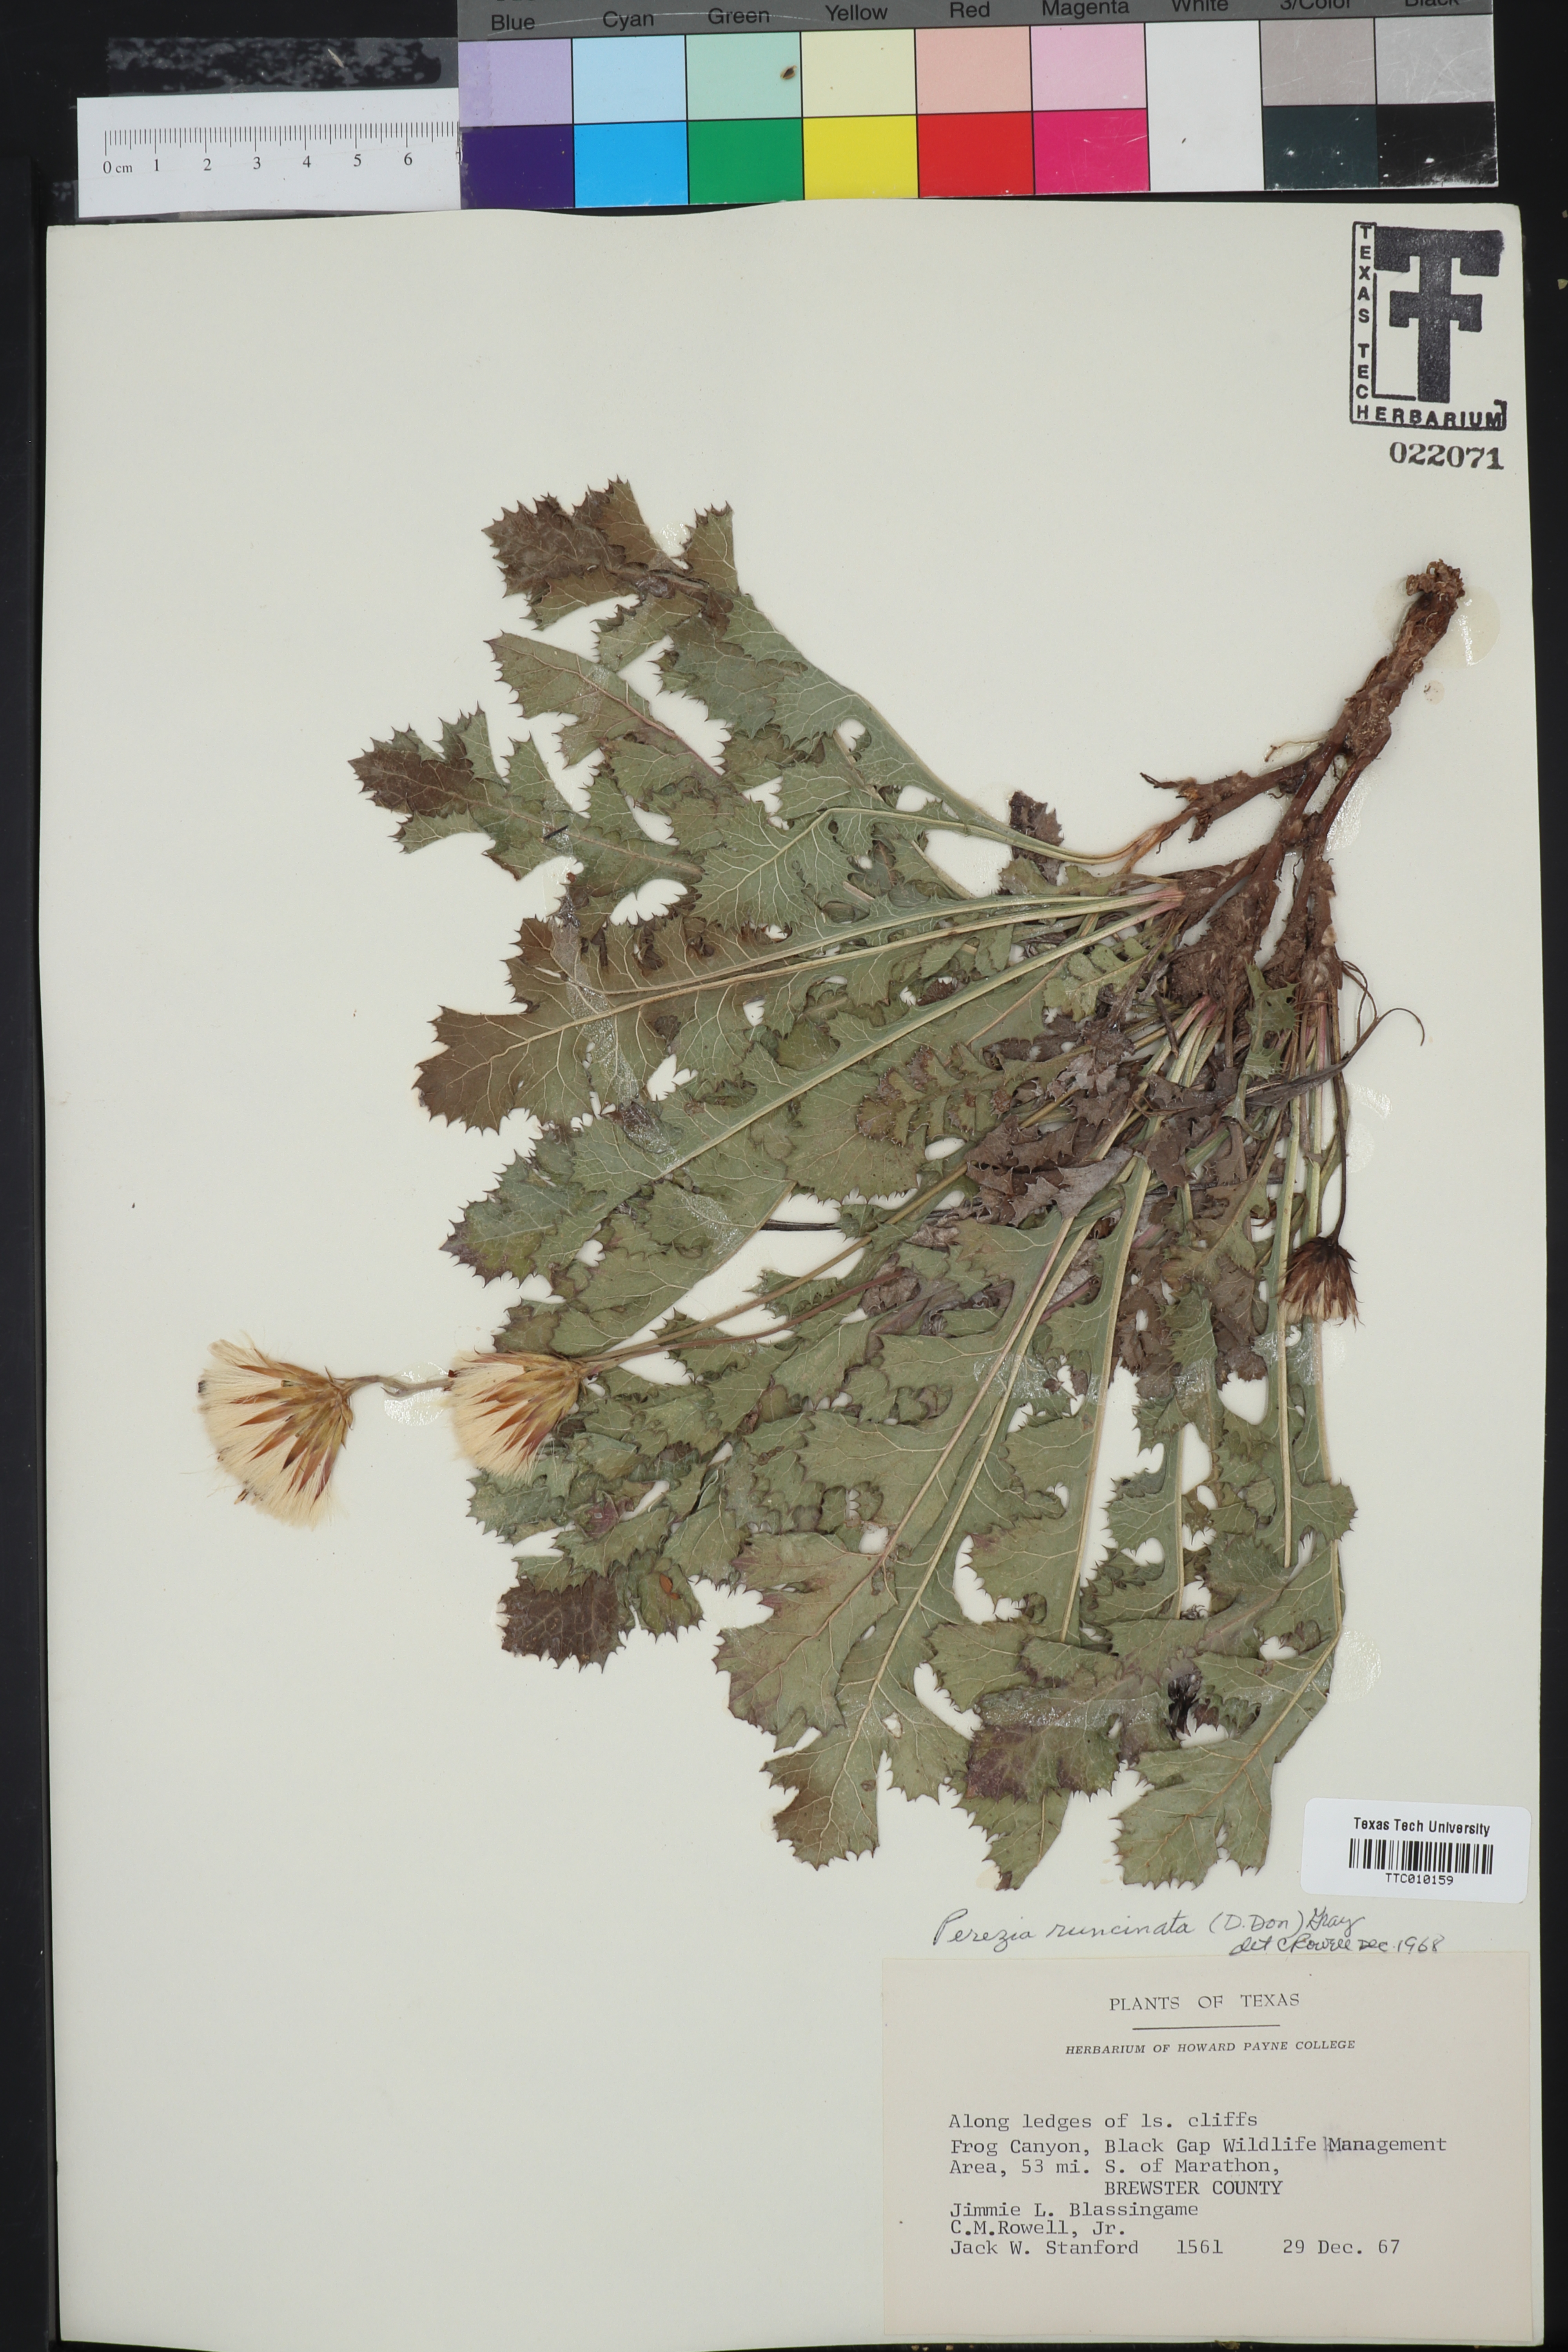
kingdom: Plantae
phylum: Tracheophyta
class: Magnoliopsida
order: Asterales
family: Asteraceae
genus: Acourtia
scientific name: Acourtia runcinata
